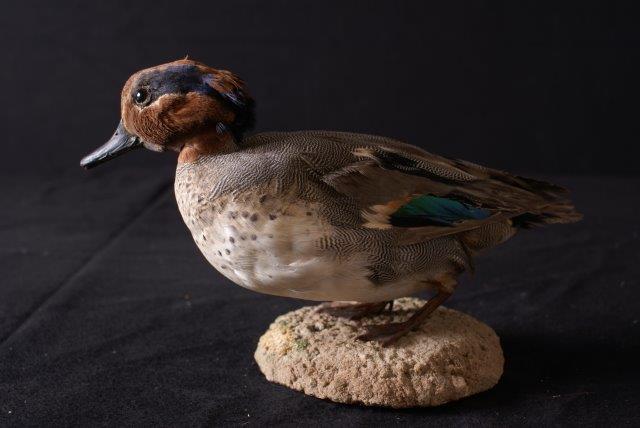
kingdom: Animalia
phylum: Chordata
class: Aves
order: Anseriformes
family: Anatidae
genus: Anas
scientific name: Anas crecca
